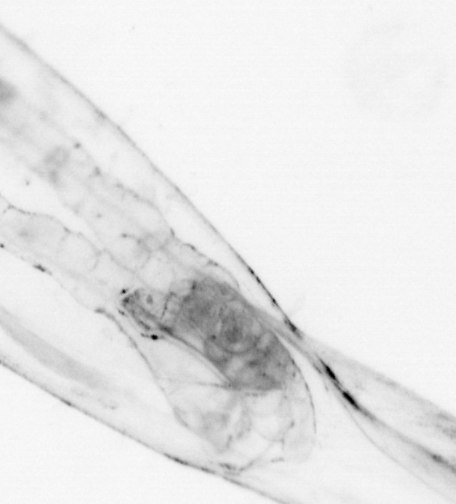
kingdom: Animalia
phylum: Chaetognatha
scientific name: Chaetognatha
